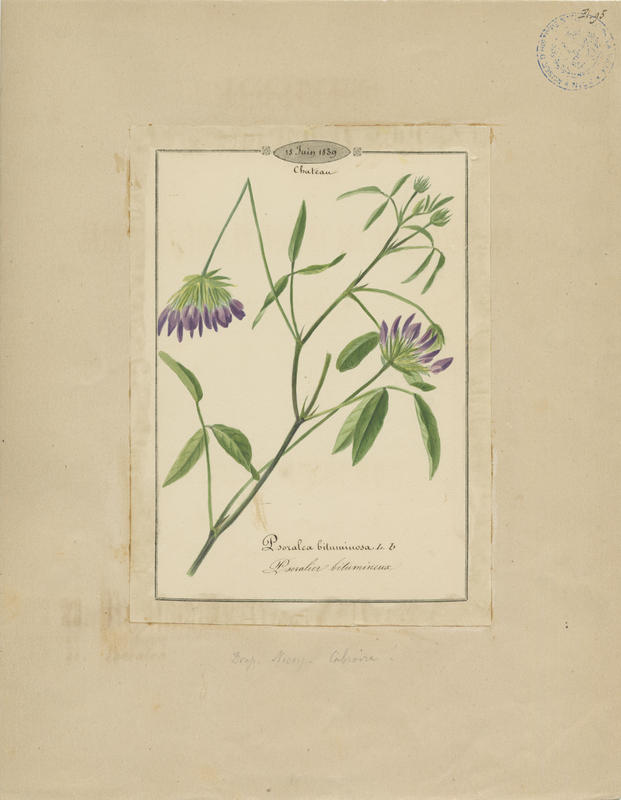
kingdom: Plantae
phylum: Tracheophyta
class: Magnoliopsida
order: Fabales
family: Fabaceae
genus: Bituminaria
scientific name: Bituminaria bituminosa
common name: Arabian pea
